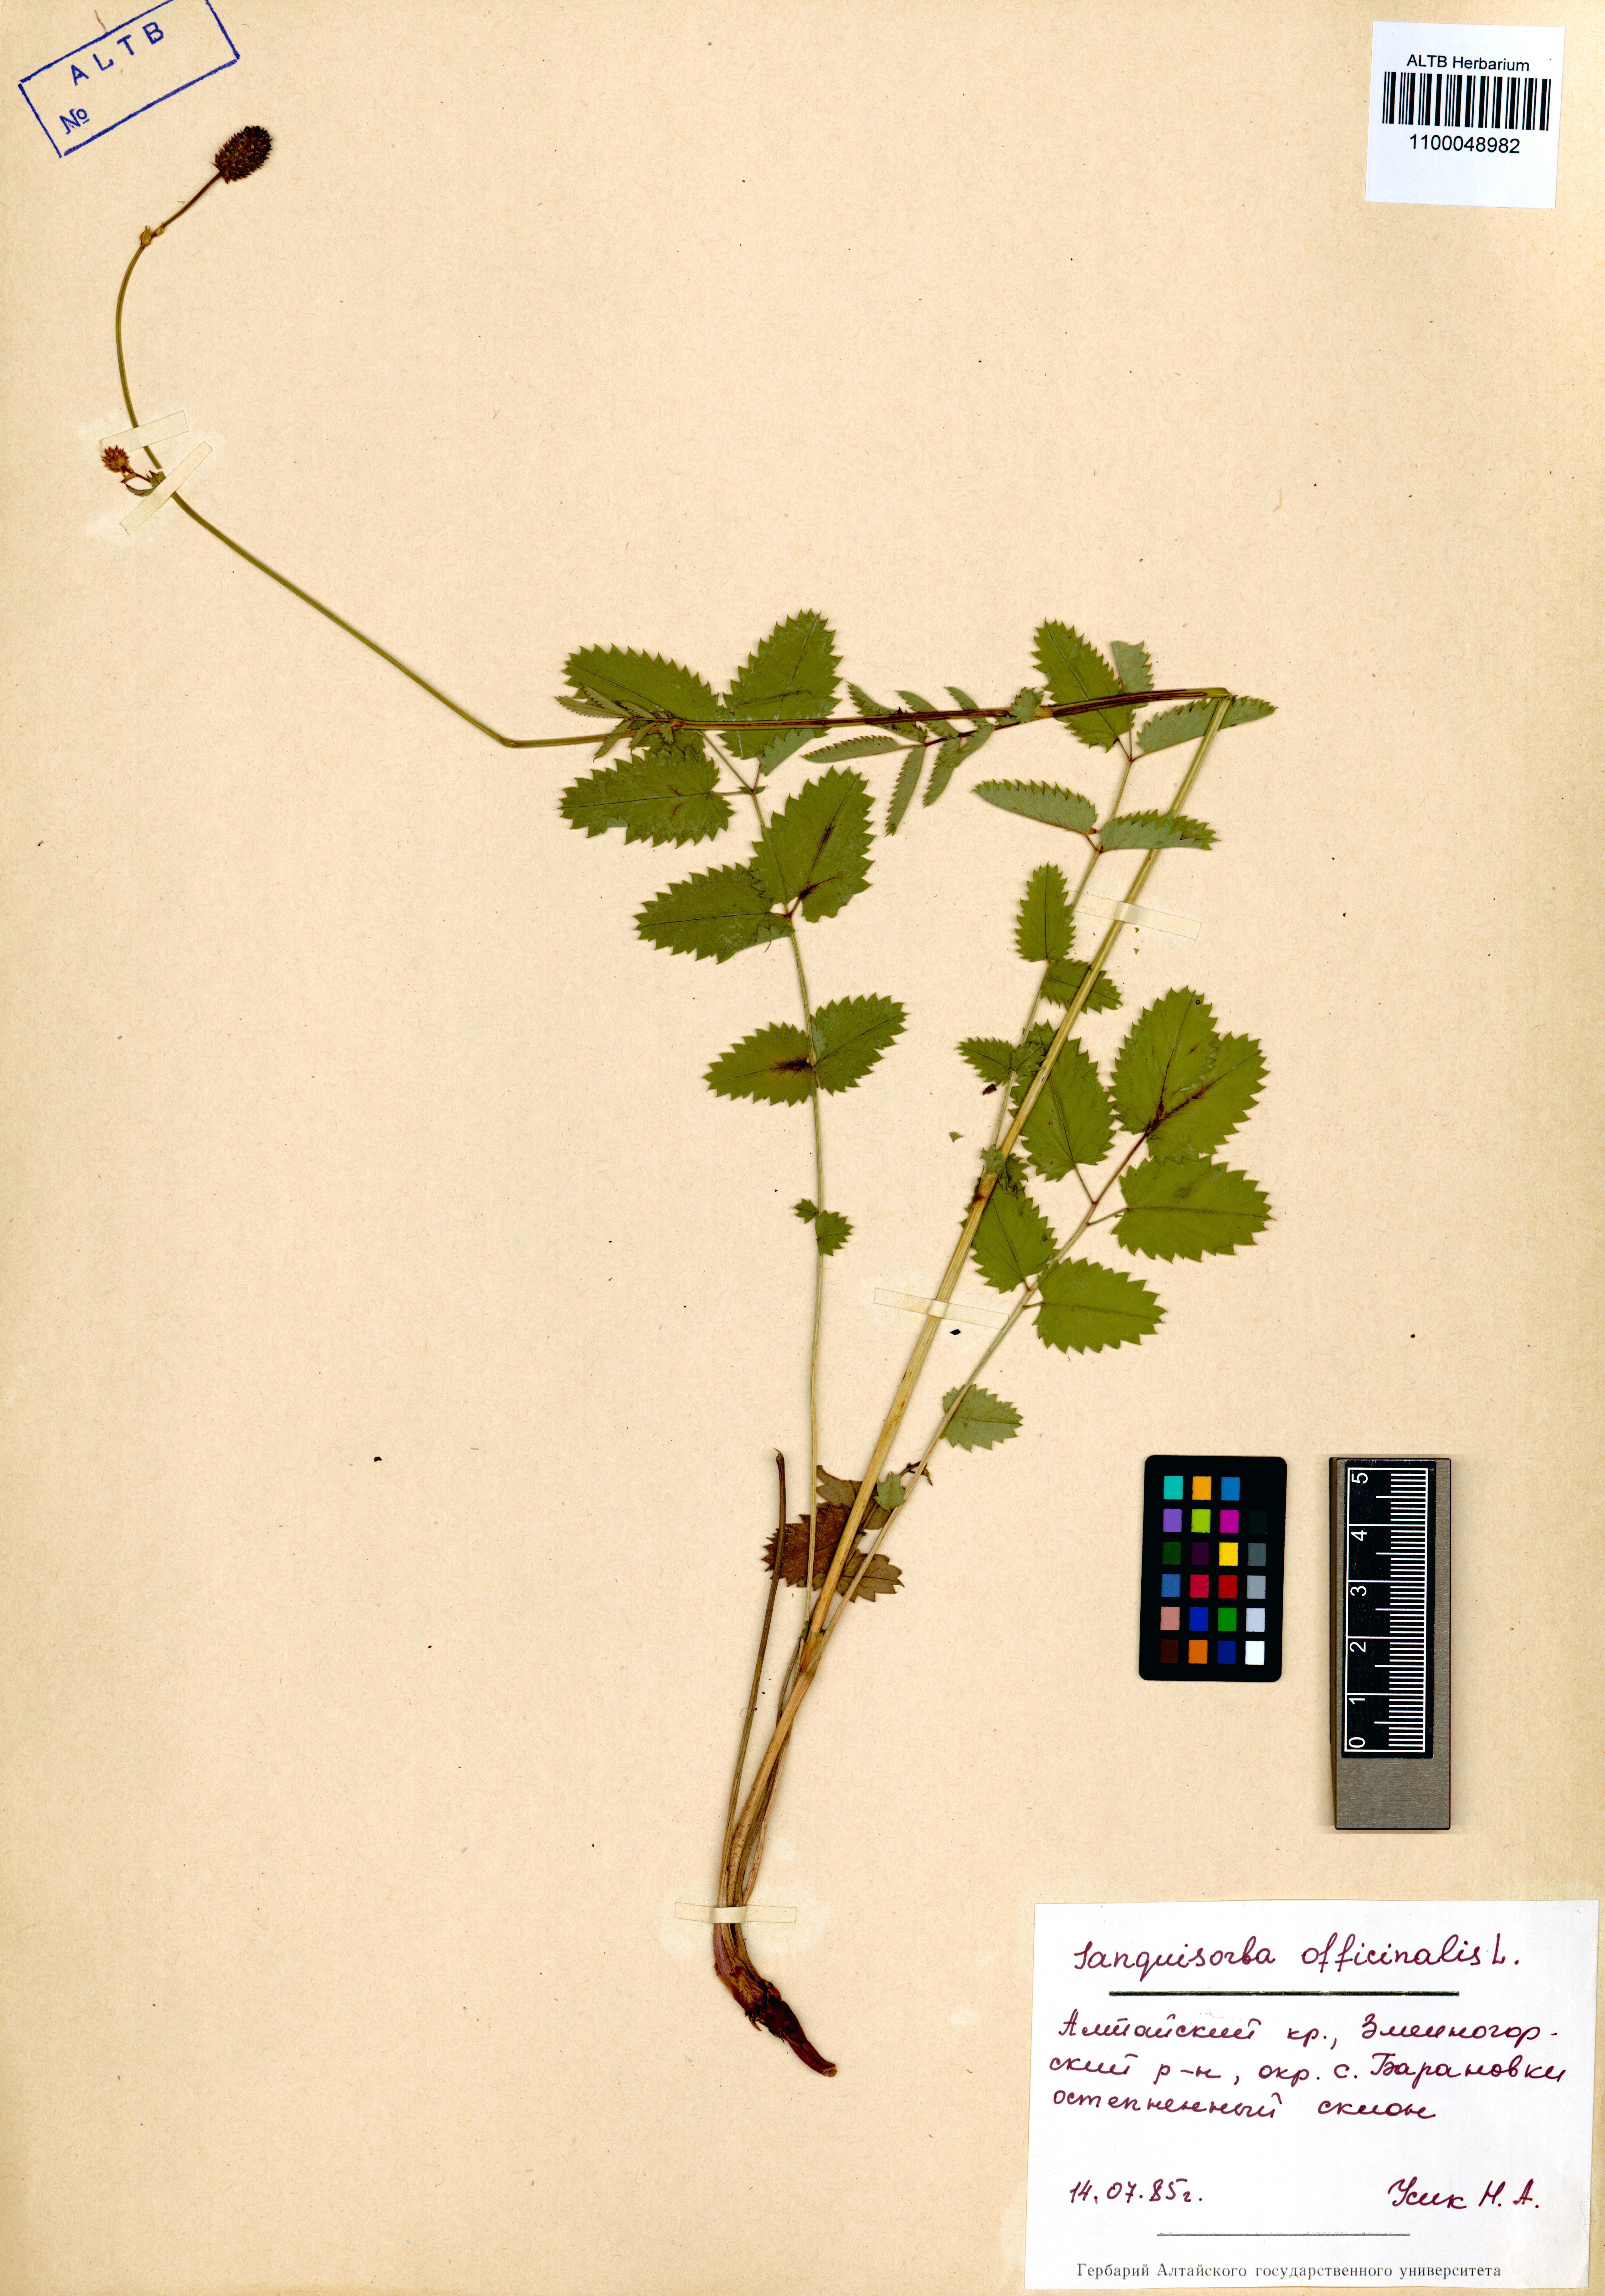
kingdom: Plantae
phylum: Tracheophyta
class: Magnoliopsida
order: Rosales
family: Rosaceae
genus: Sanguisorba
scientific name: Sanguisorba officinalis
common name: Great burnet
